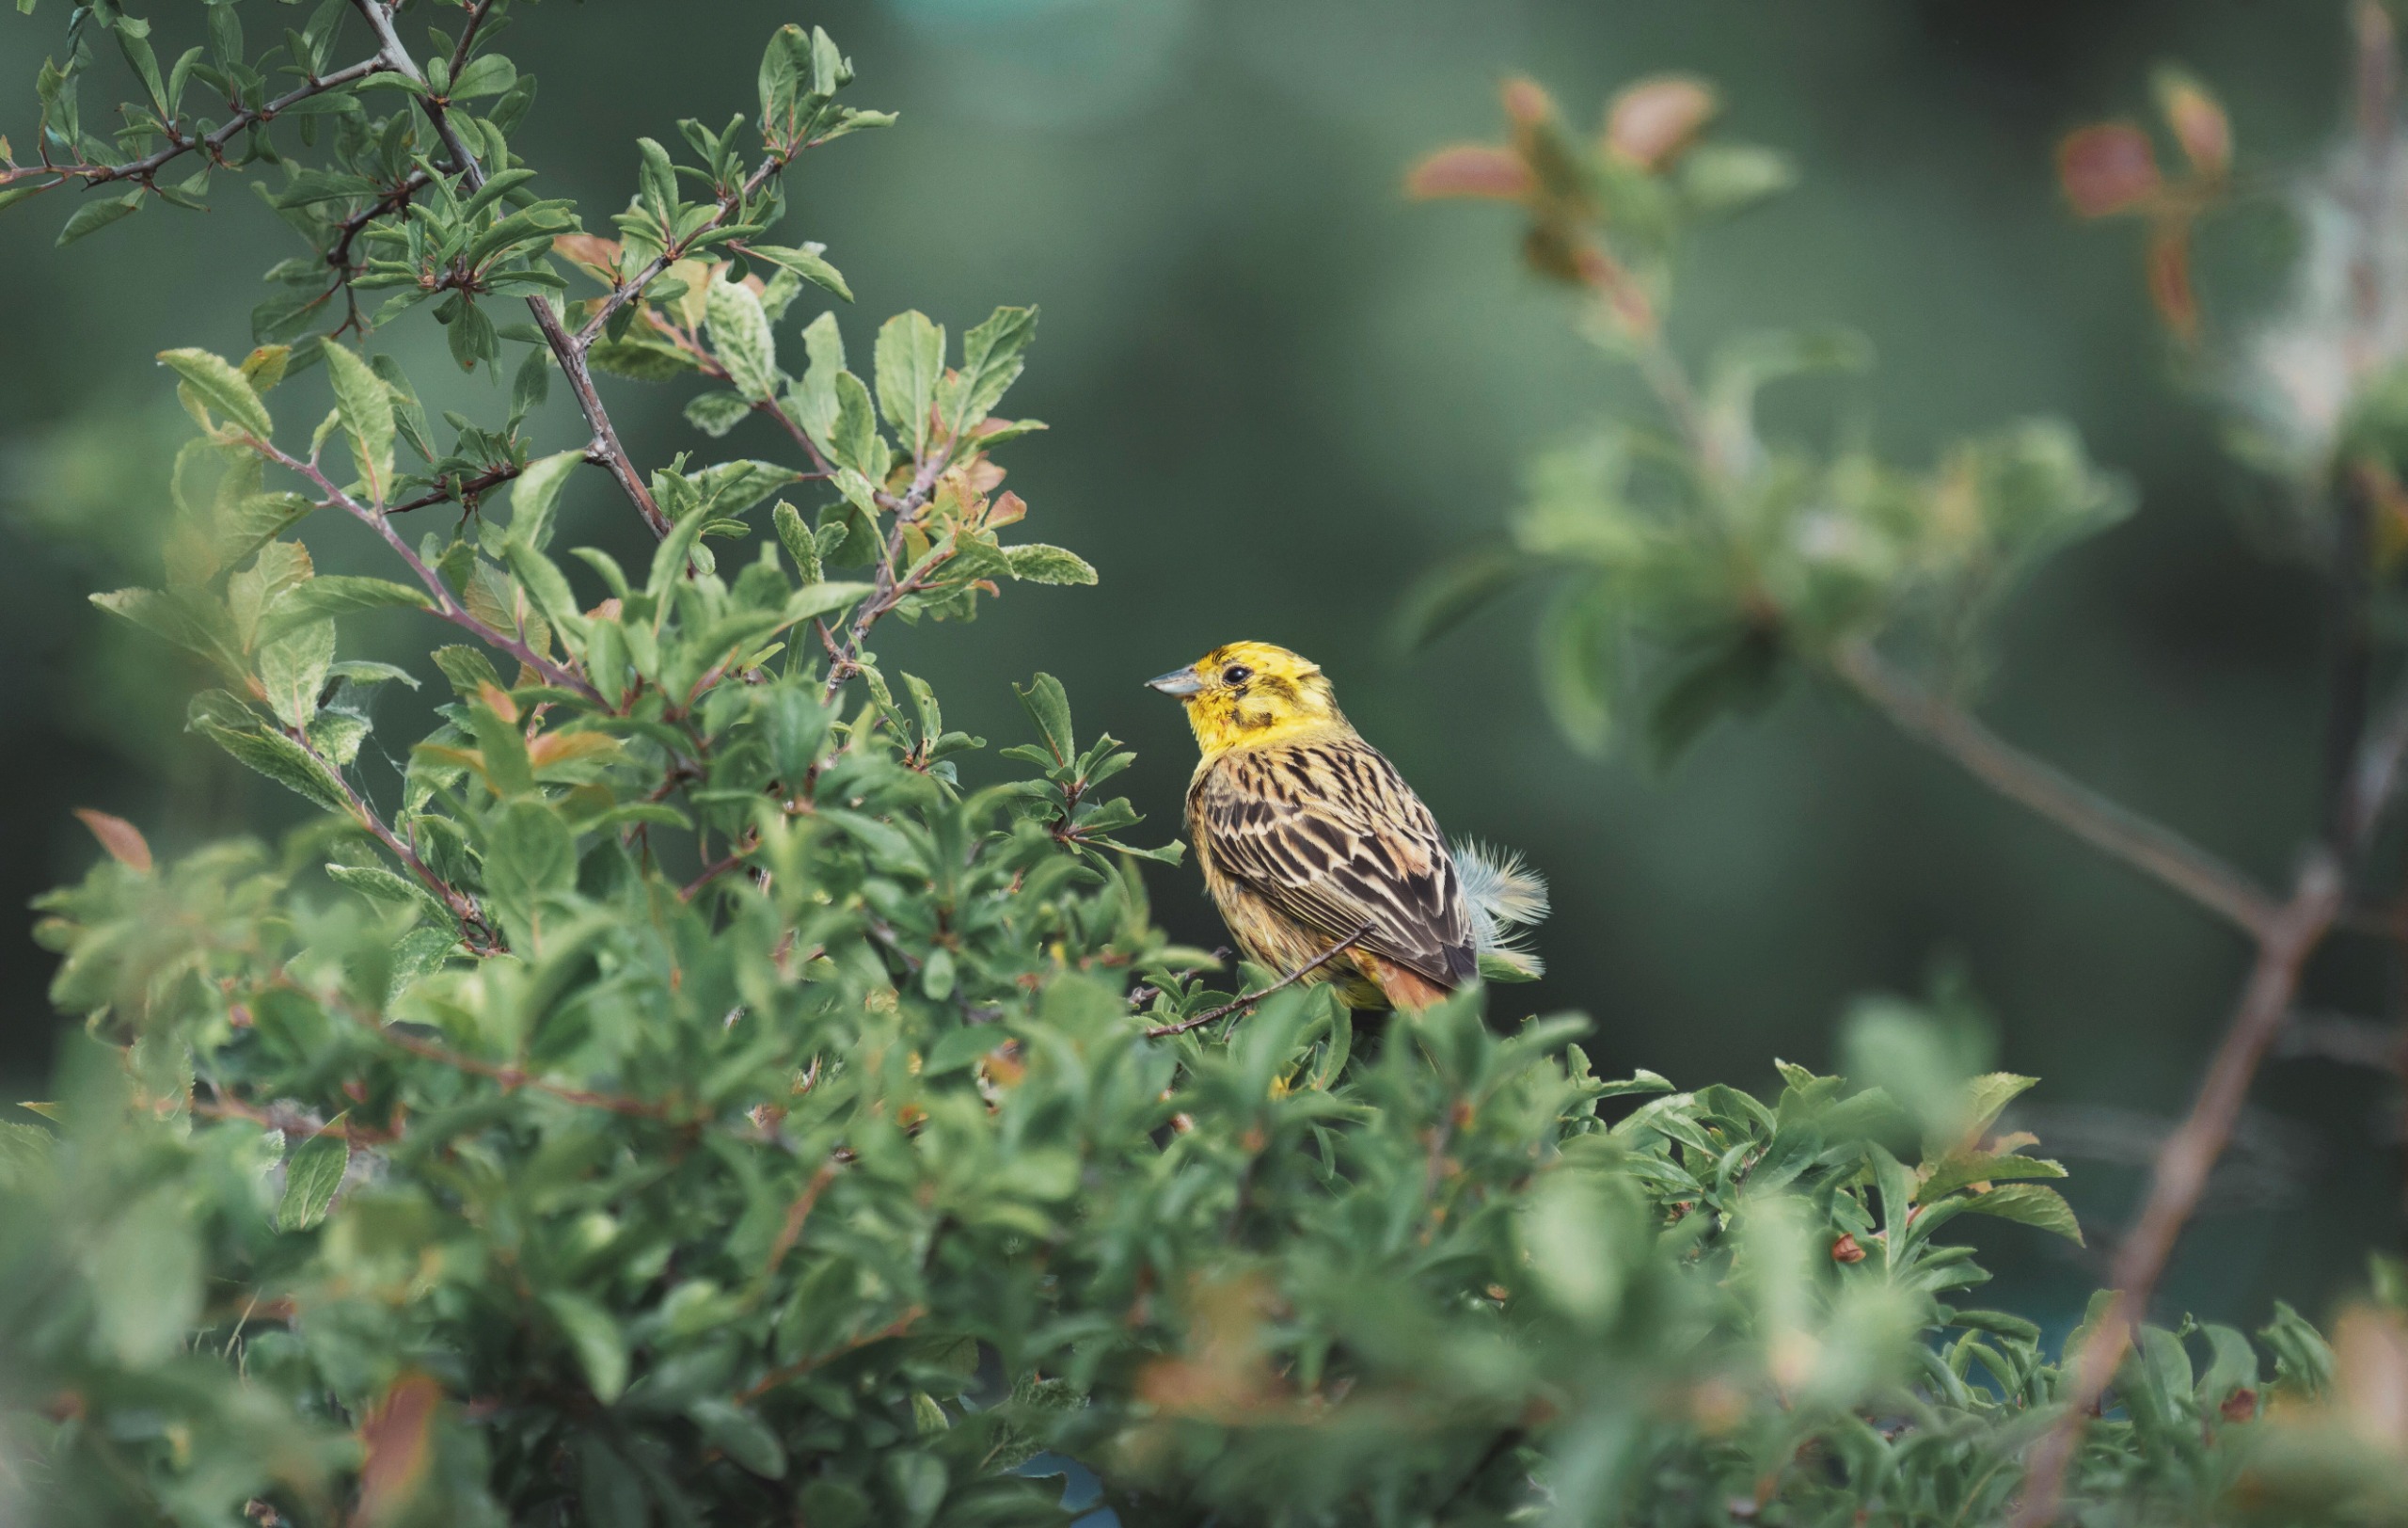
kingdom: Animalia
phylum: Chordata
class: Aves
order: Passeriformes
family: Emberizidae
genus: Emberiza
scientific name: Emberiza citrinella
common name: Gulspurv
